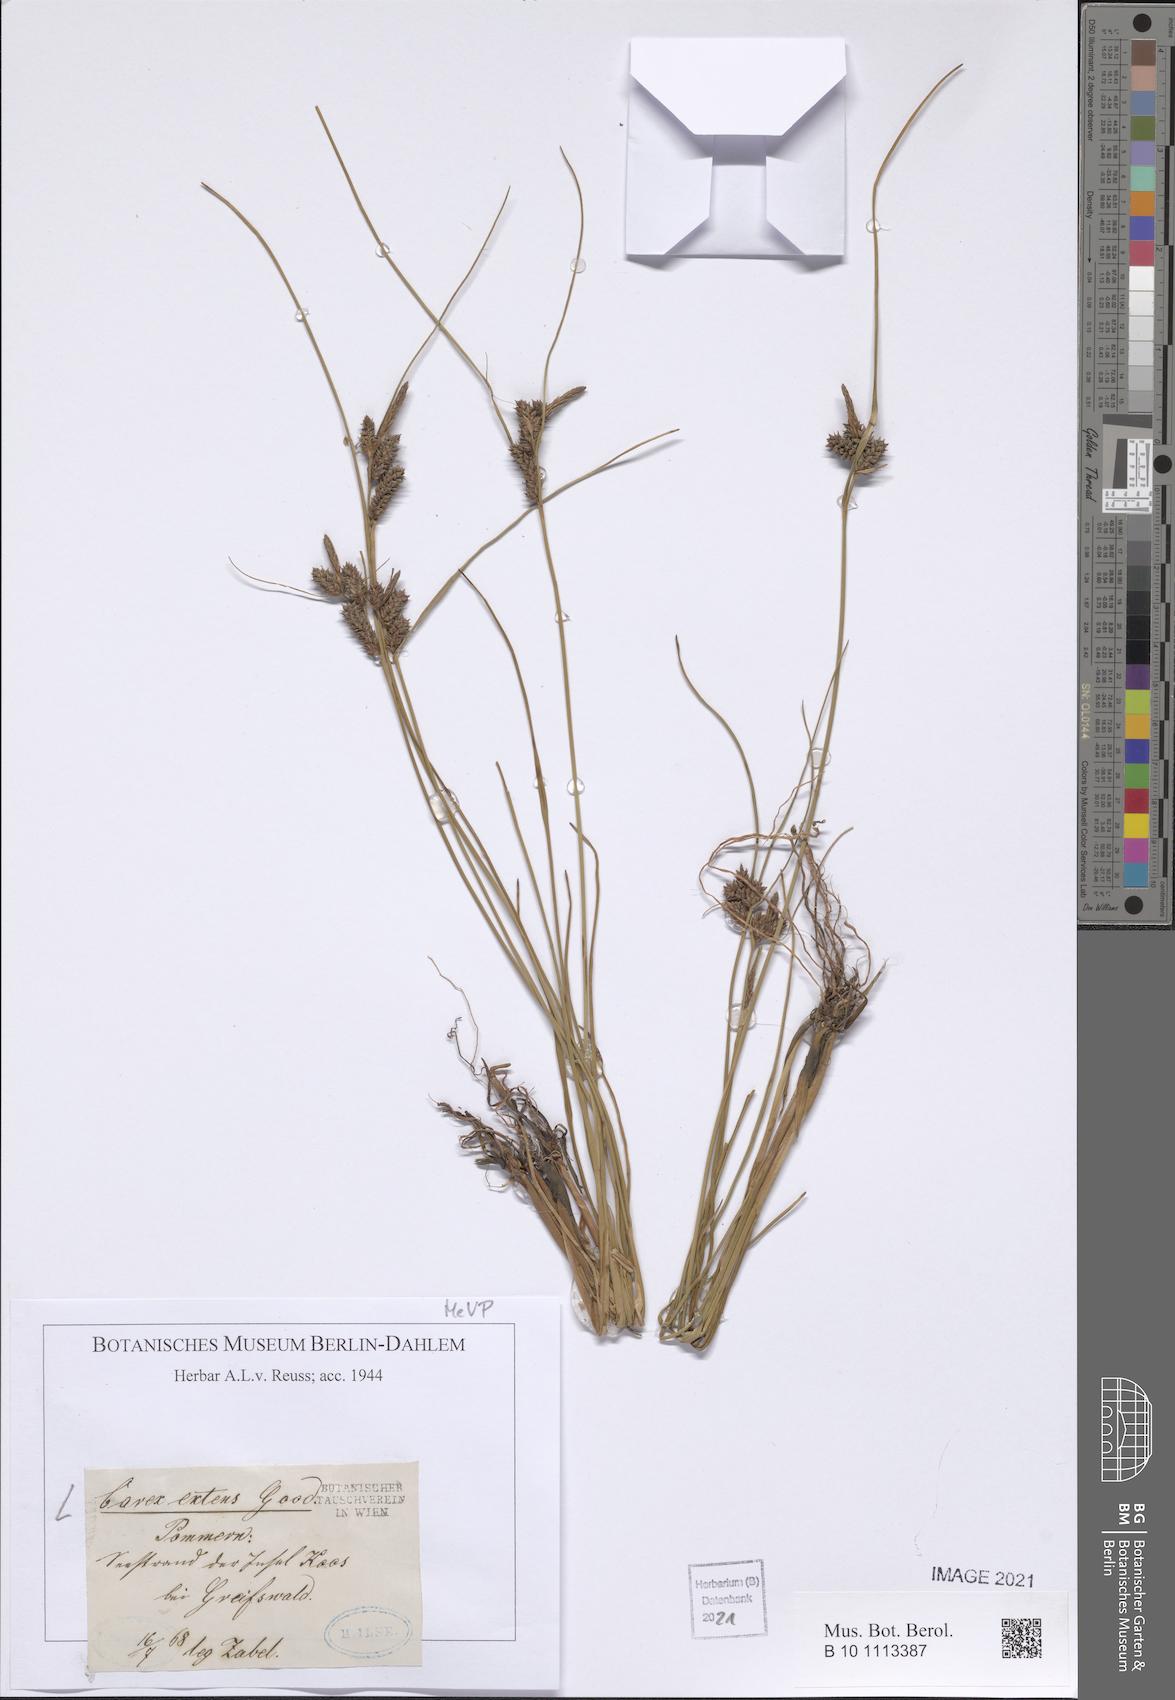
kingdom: Plantae
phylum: Tracheophyta
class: Liliopsida
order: Poales
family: Cyperaceae
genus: Carex
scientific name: Carex extensa
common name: Long-bracted sedge
